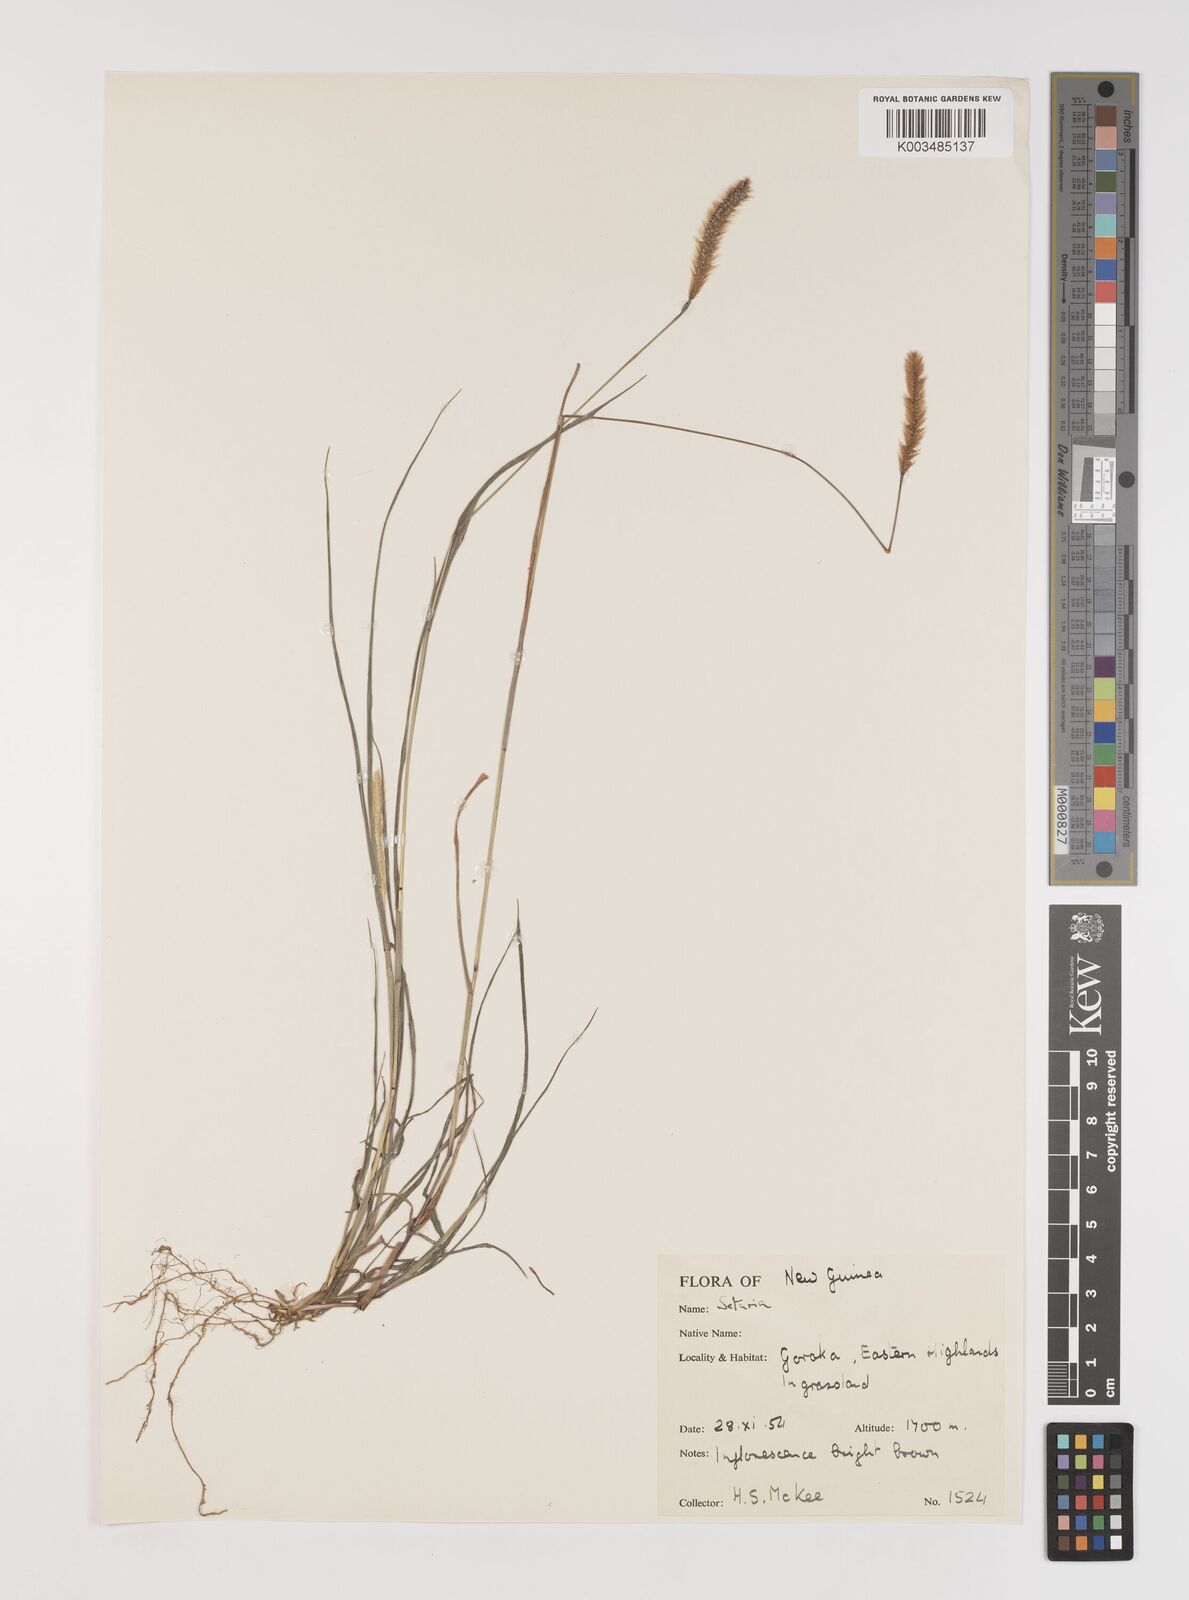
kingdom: Plantae
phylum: Tracheophyta
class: Liliopsida
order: Poales
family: Poaceae
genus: Setaria
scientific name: Setaria
